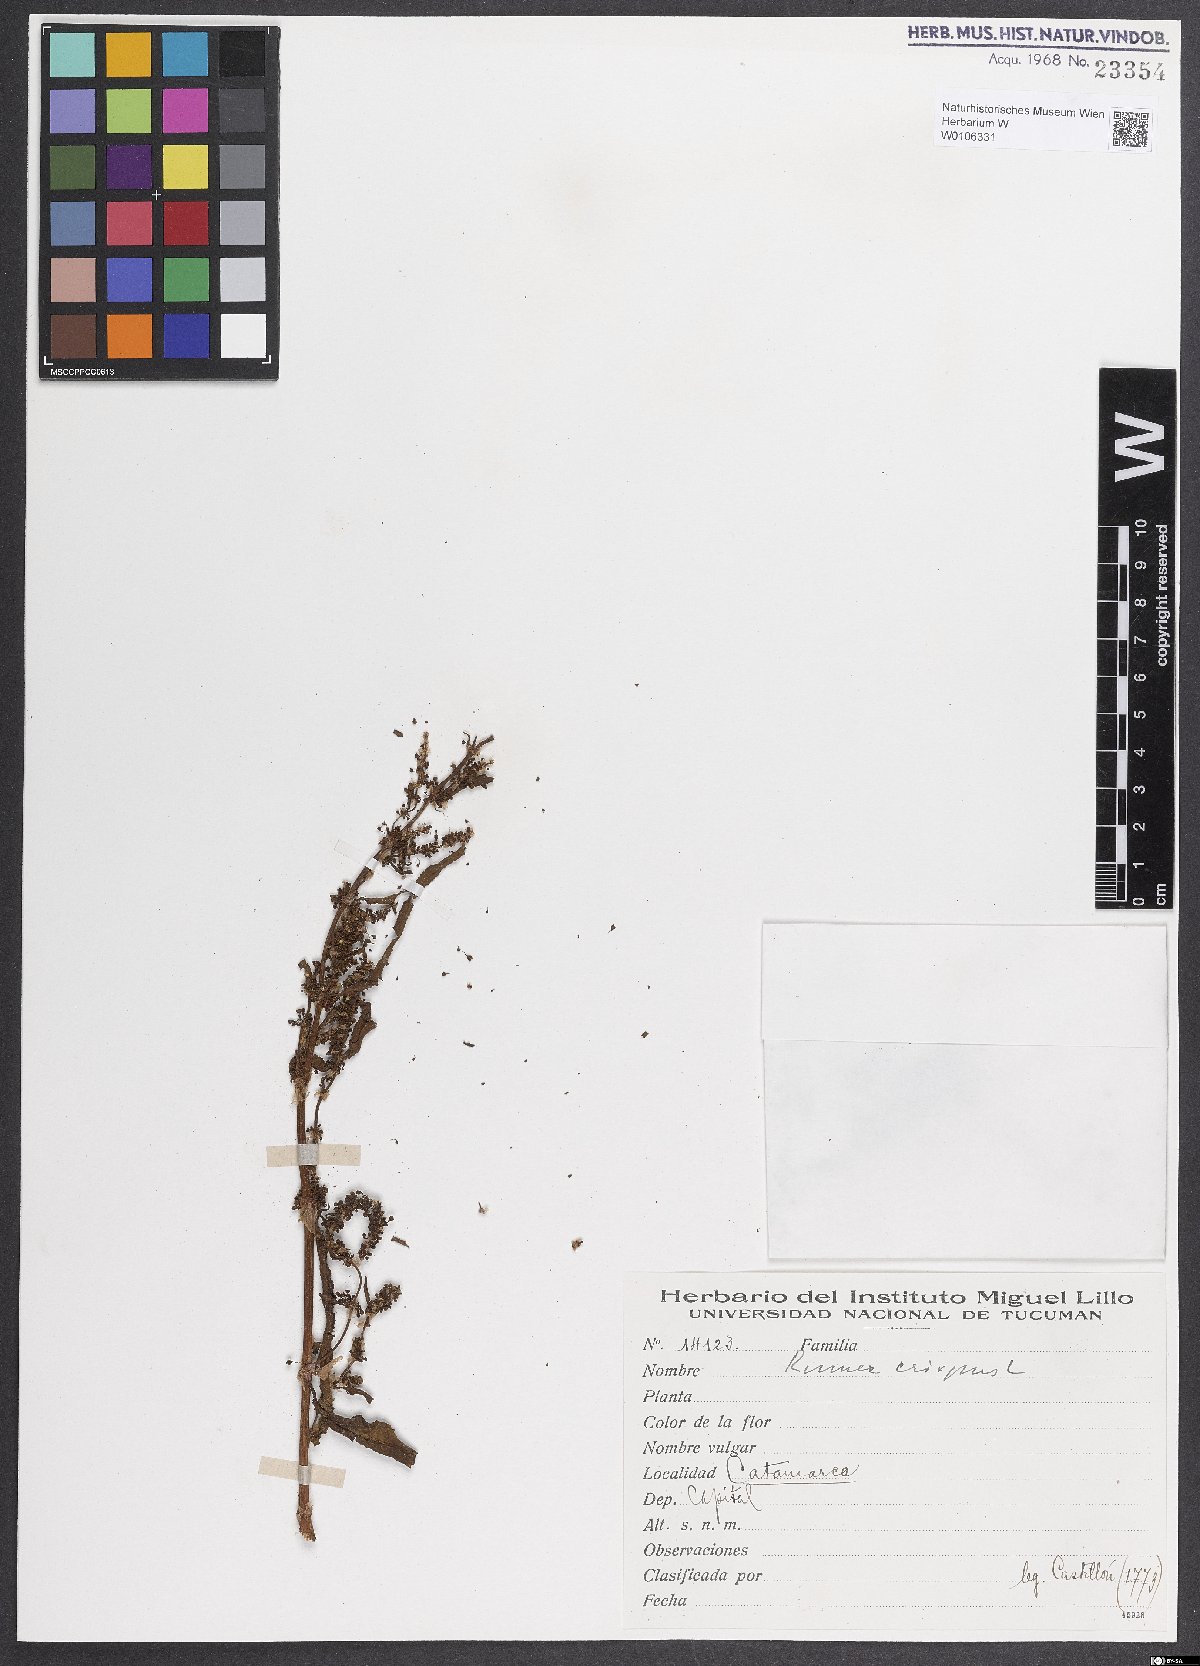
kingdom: Plantae
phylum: Tracheophyta
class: Magnoliopsida
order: Caryophyllales
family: Polygonaceae
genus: Rumex
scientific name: Rumex crispus
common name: Curled dock
